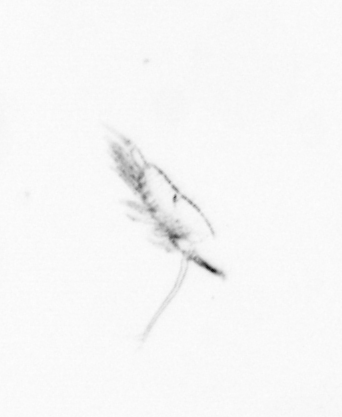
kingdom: Animalia
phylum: Arthropoda
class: Maxillopoda
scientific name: Maxillopoda
